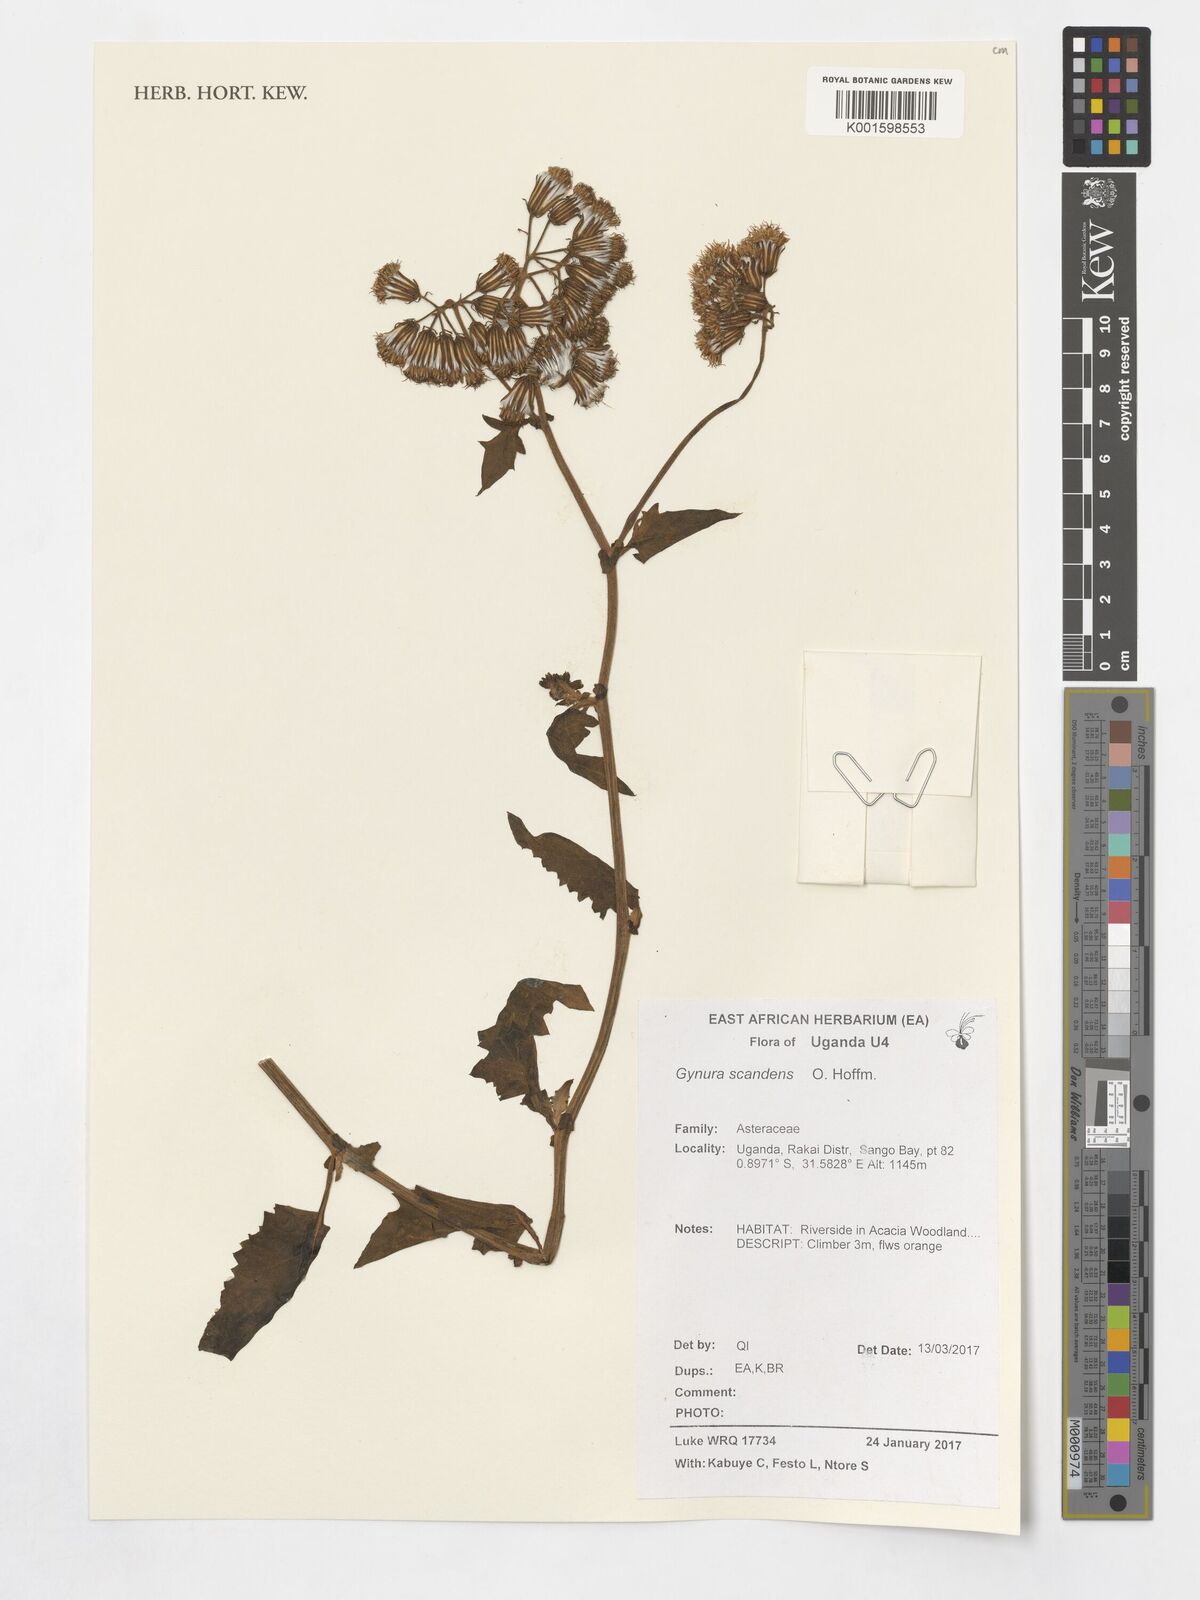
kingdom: Plantae
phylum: Tracheophyta
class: Magnoliopsida
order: Asterales
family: Asteraceae
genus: Gynura
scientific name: Gynura scandens
